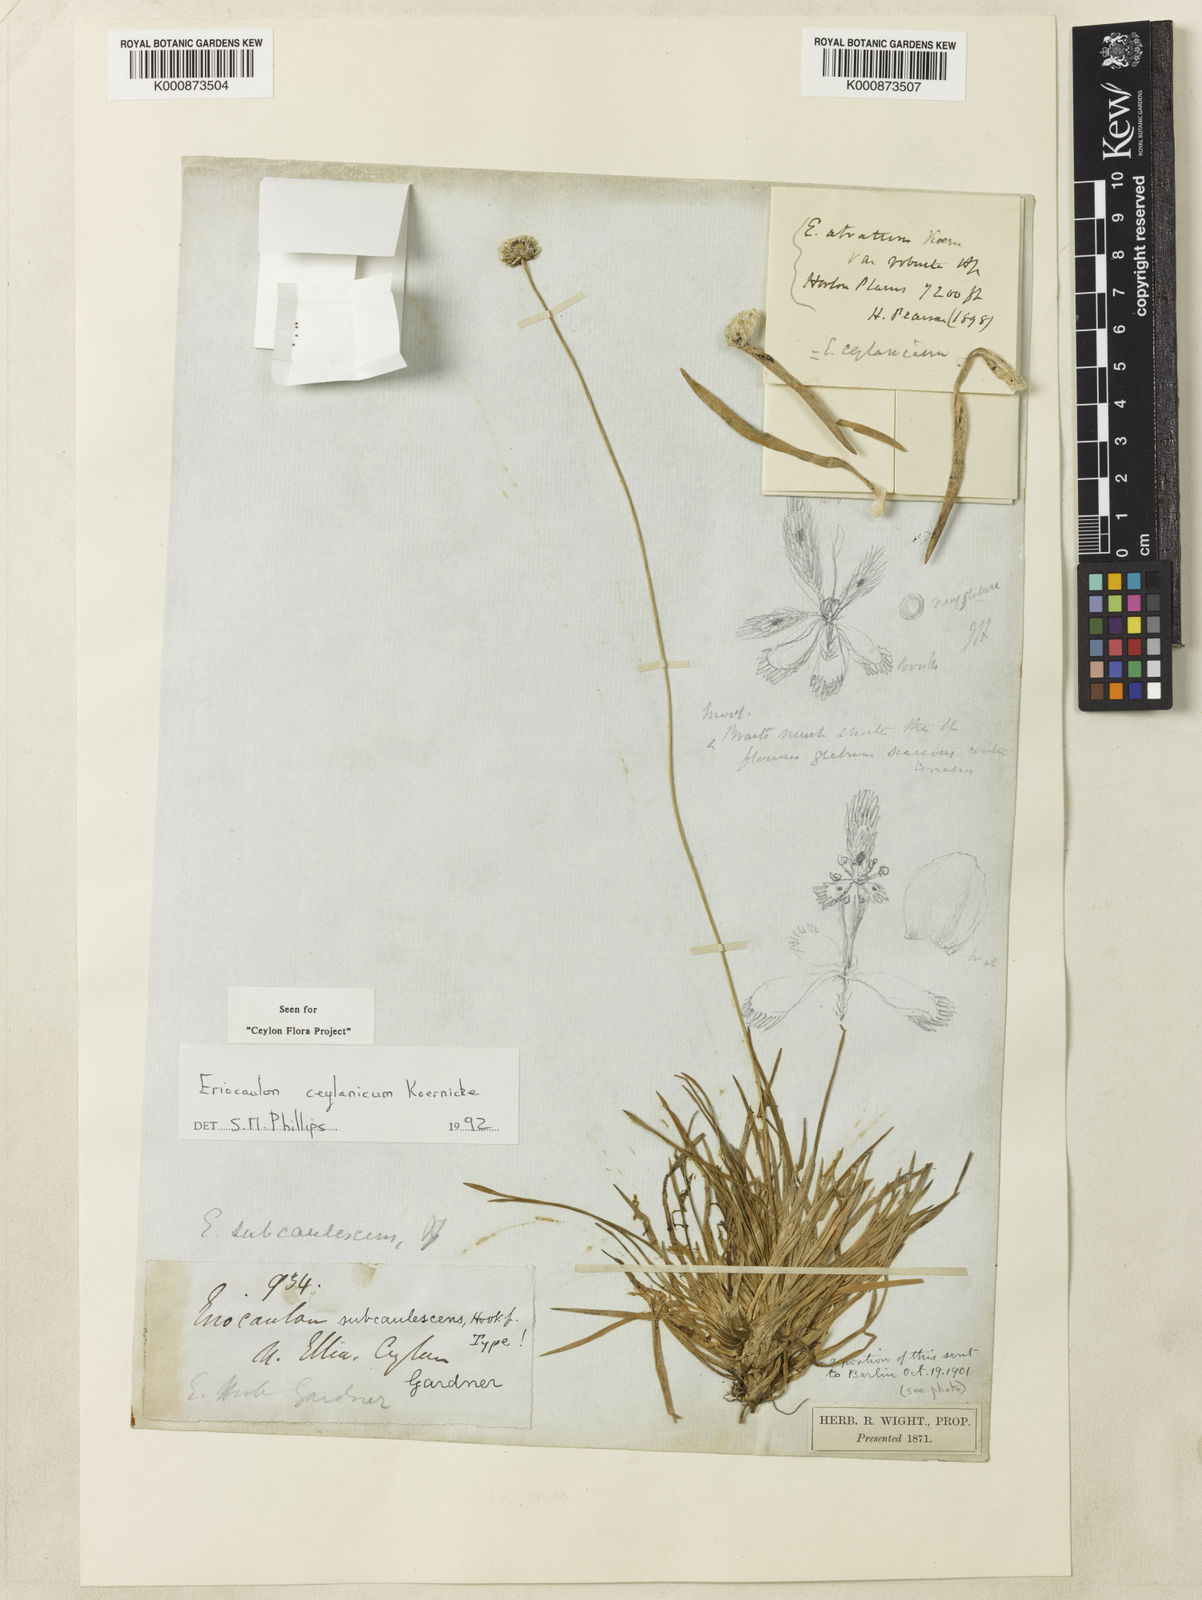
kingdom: Plantae
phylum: Tracheophyta
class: Liliopsida
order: Poales
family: Eriocaulaceae
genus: Eriocaulon
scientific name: Eriocaulon
